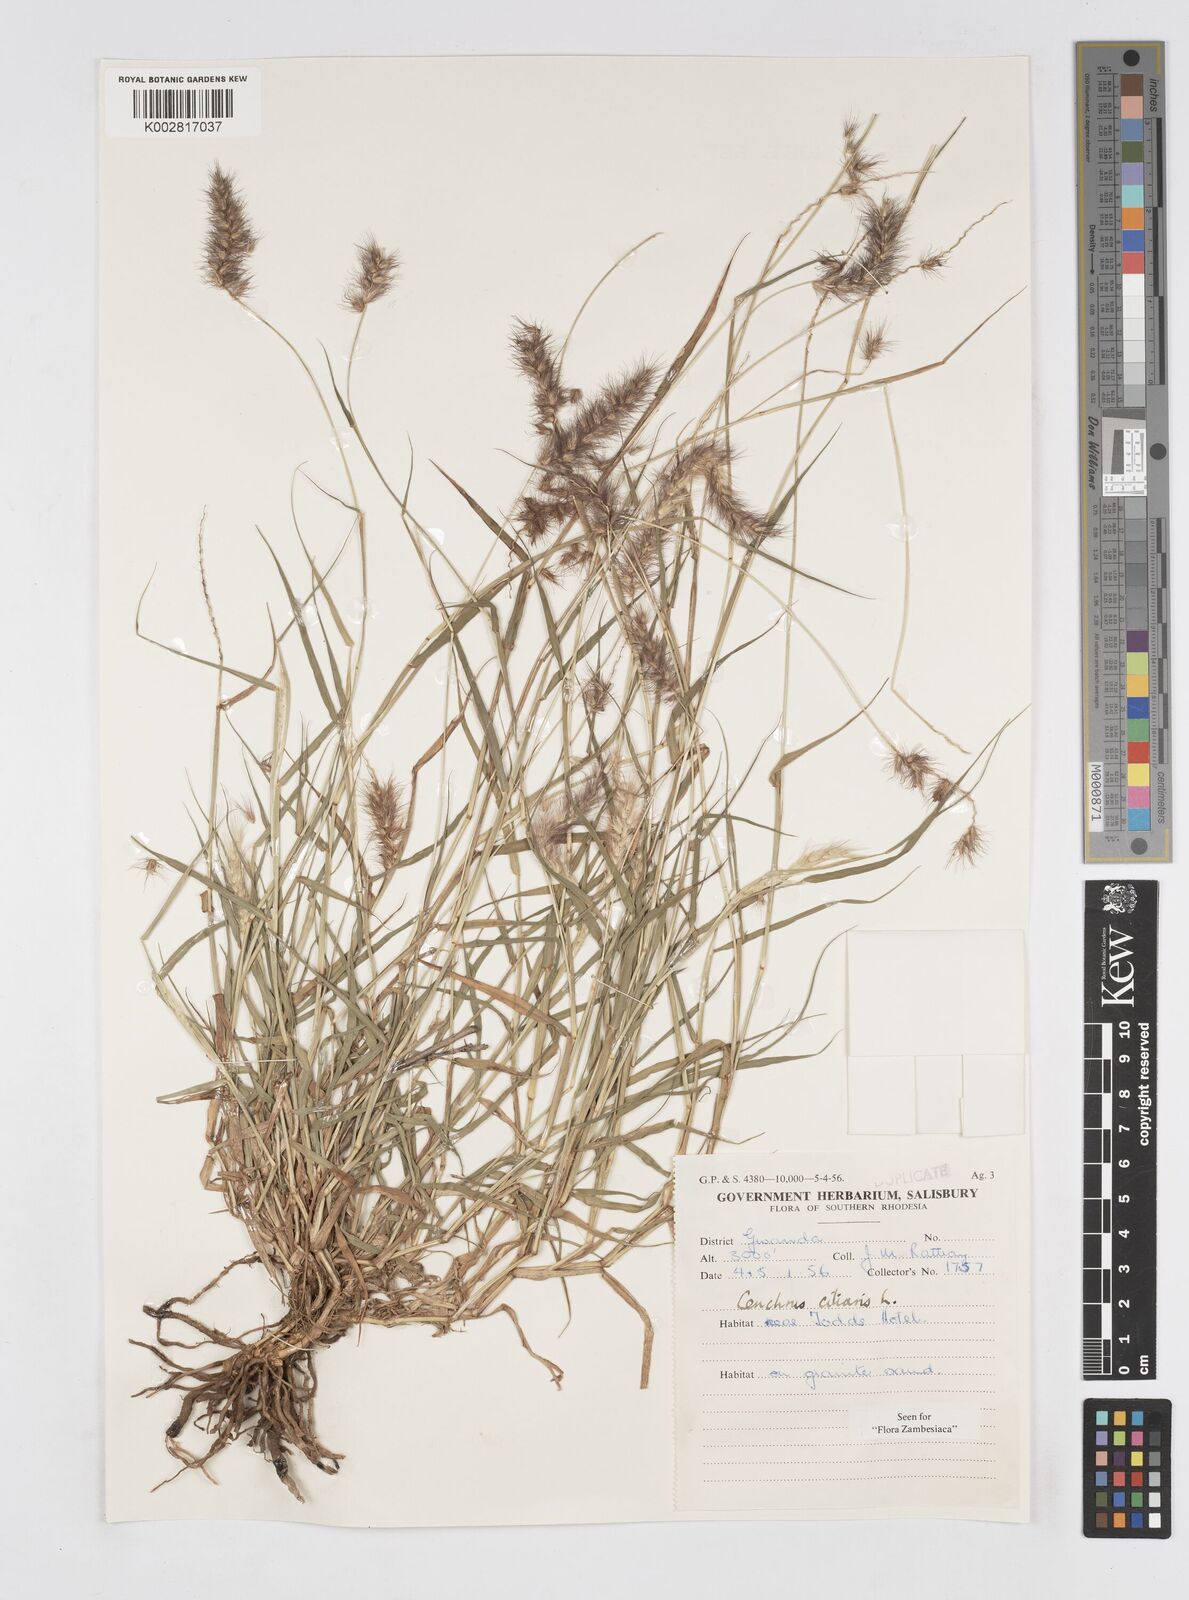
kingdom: Plantae
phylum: Tracheophyta
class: Liliopsida
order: Poales
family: Poaceae
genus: Cenchrus
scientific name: Cenchrus ciliaris
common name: Buffelgrass
